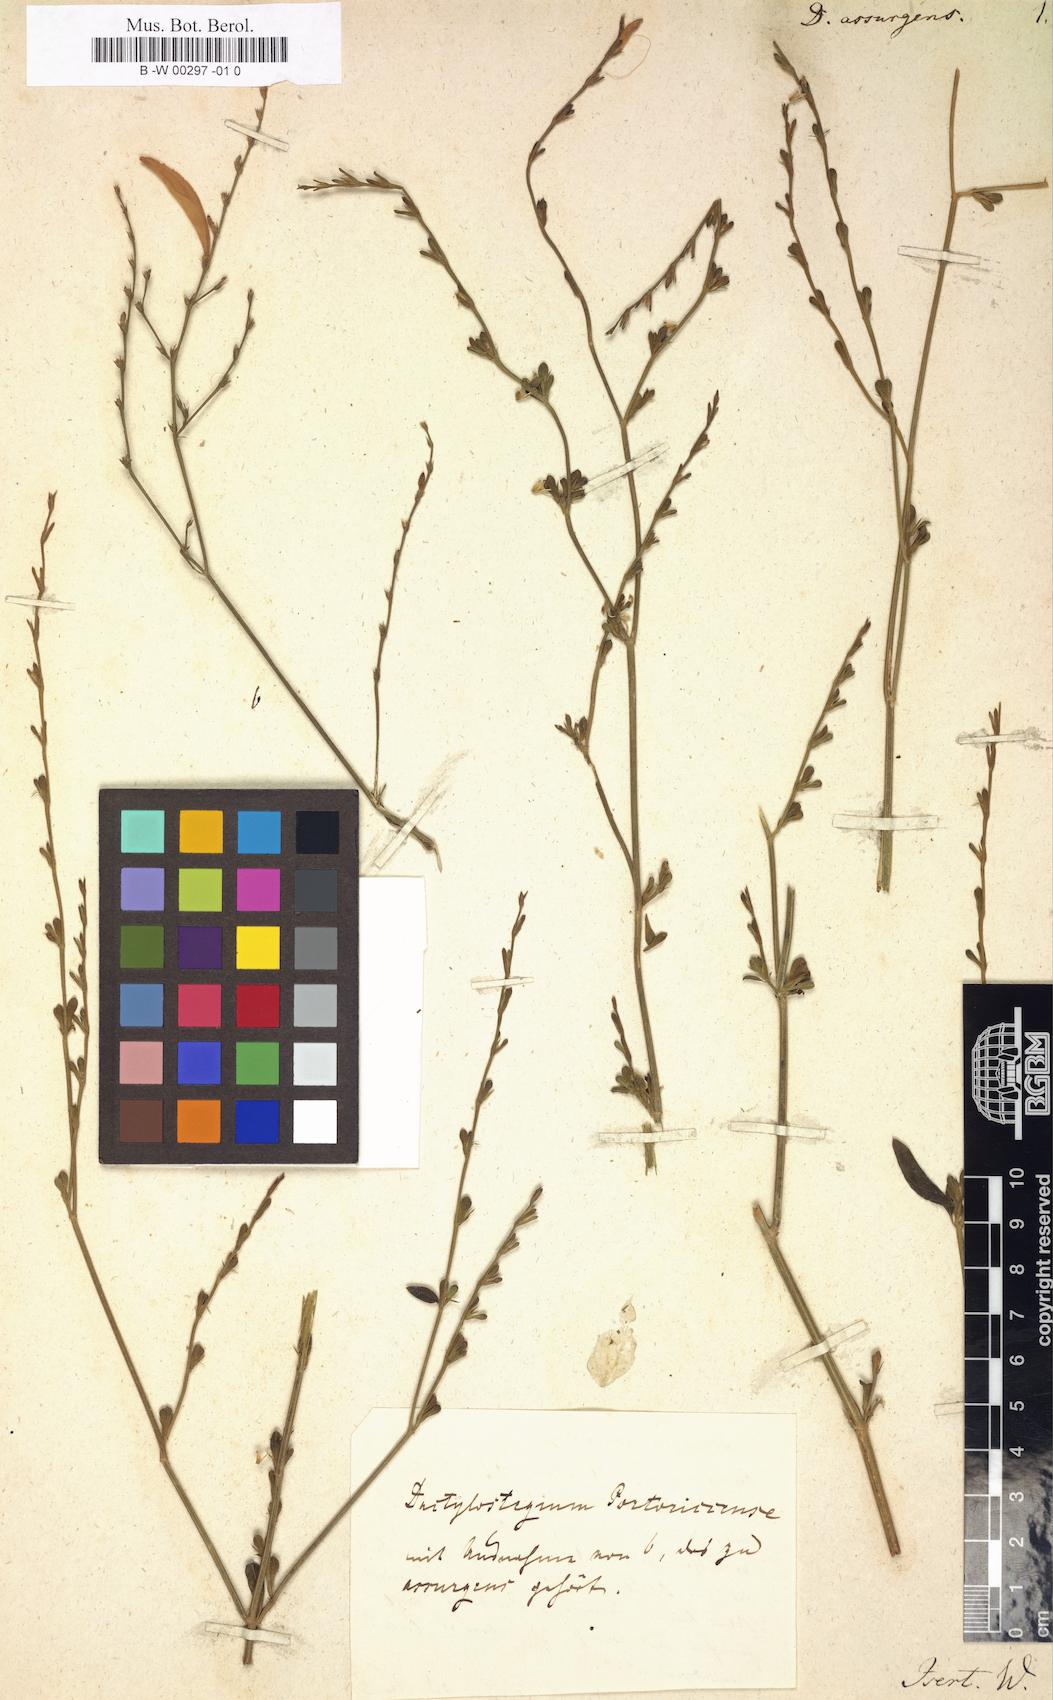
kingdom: Plantae
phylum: Tracheophyta
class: Magnoliopsida
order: Lamiales
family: Acanthaceae
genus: Dicliptera
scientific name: Dicliptera sexangularis
